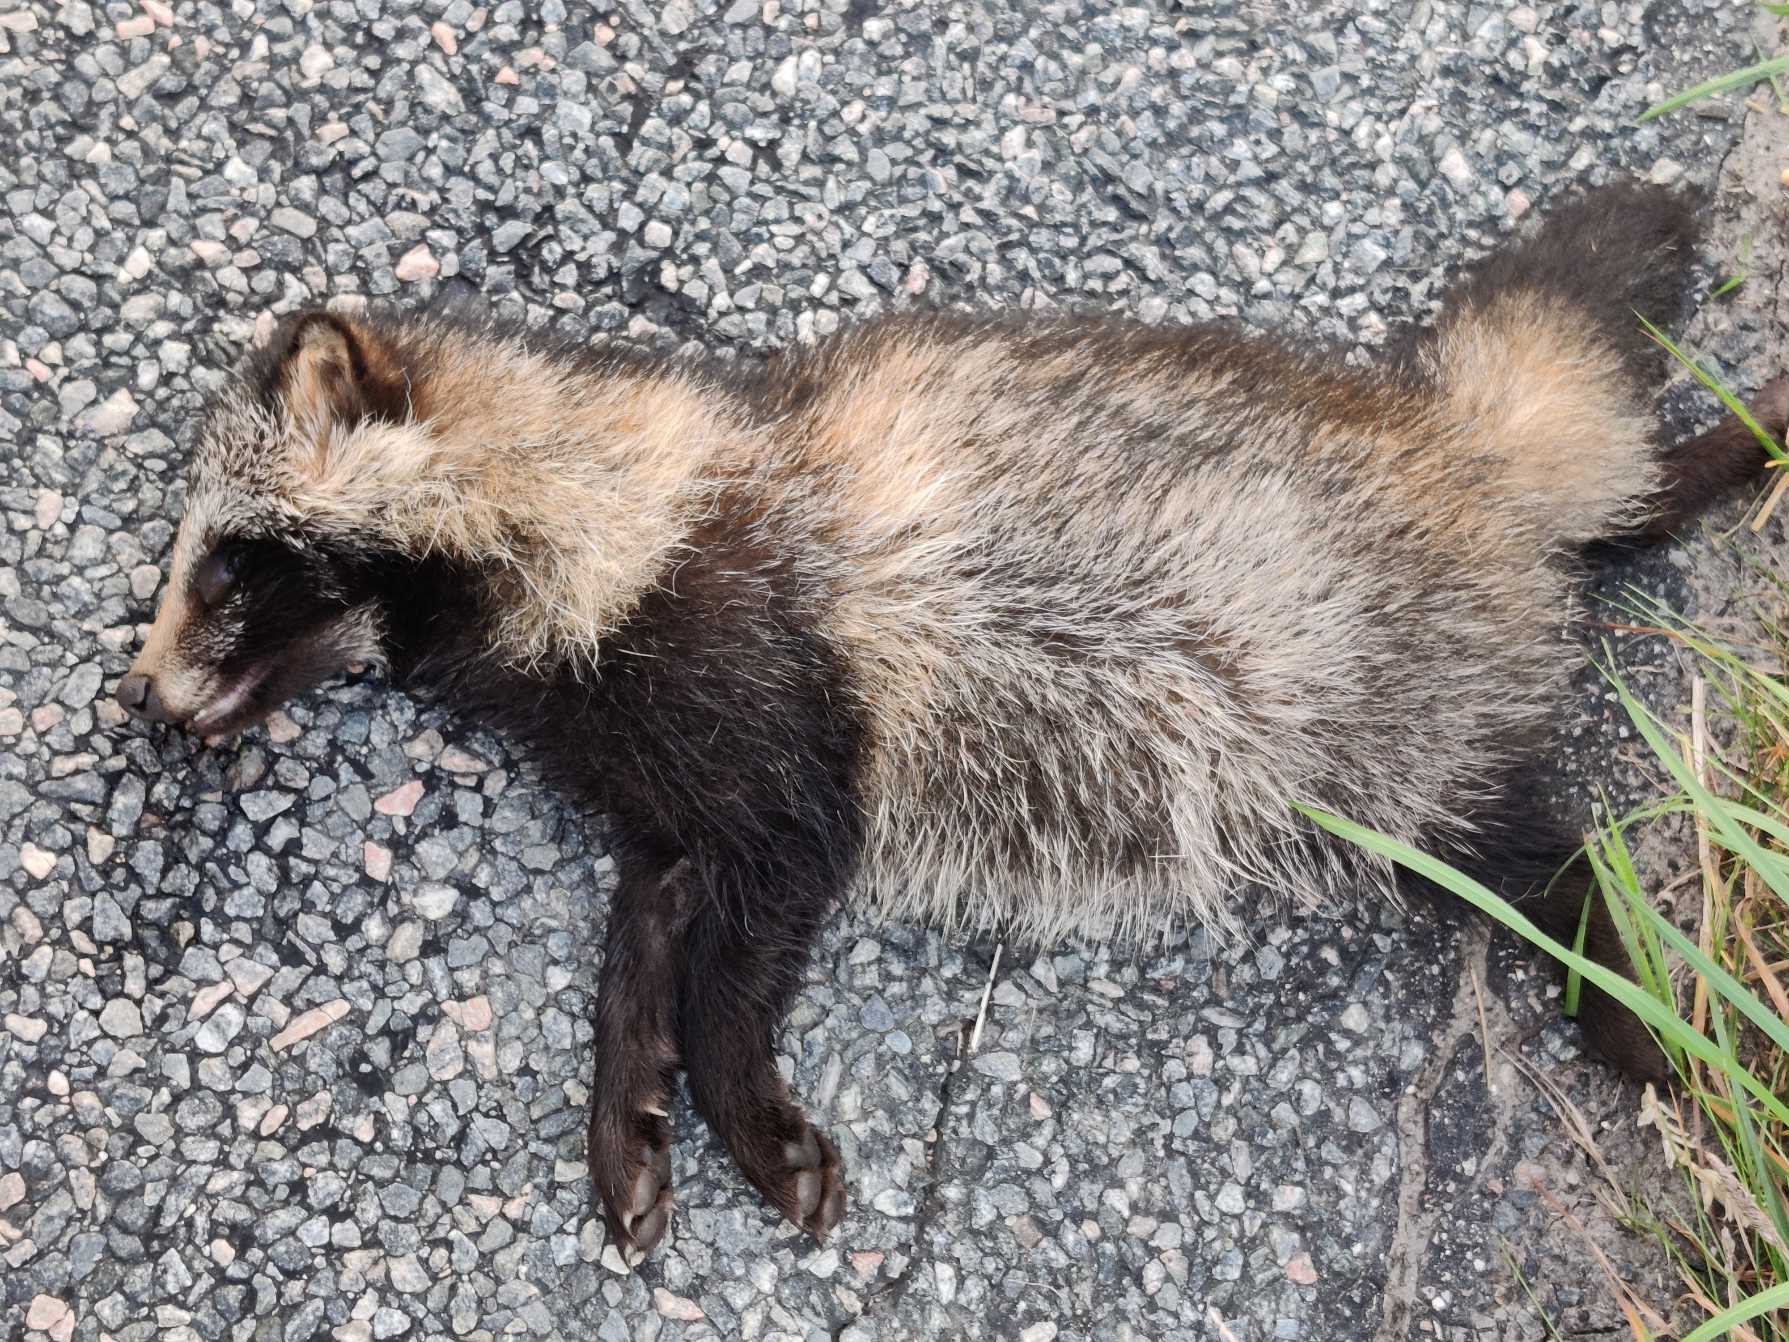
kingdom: Animalia
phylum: Chordata
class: Mammalia
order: Carnivora
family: Canidae
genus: Nyctereutes
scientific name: Nyctereutes procyonoides
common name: Mårhund
